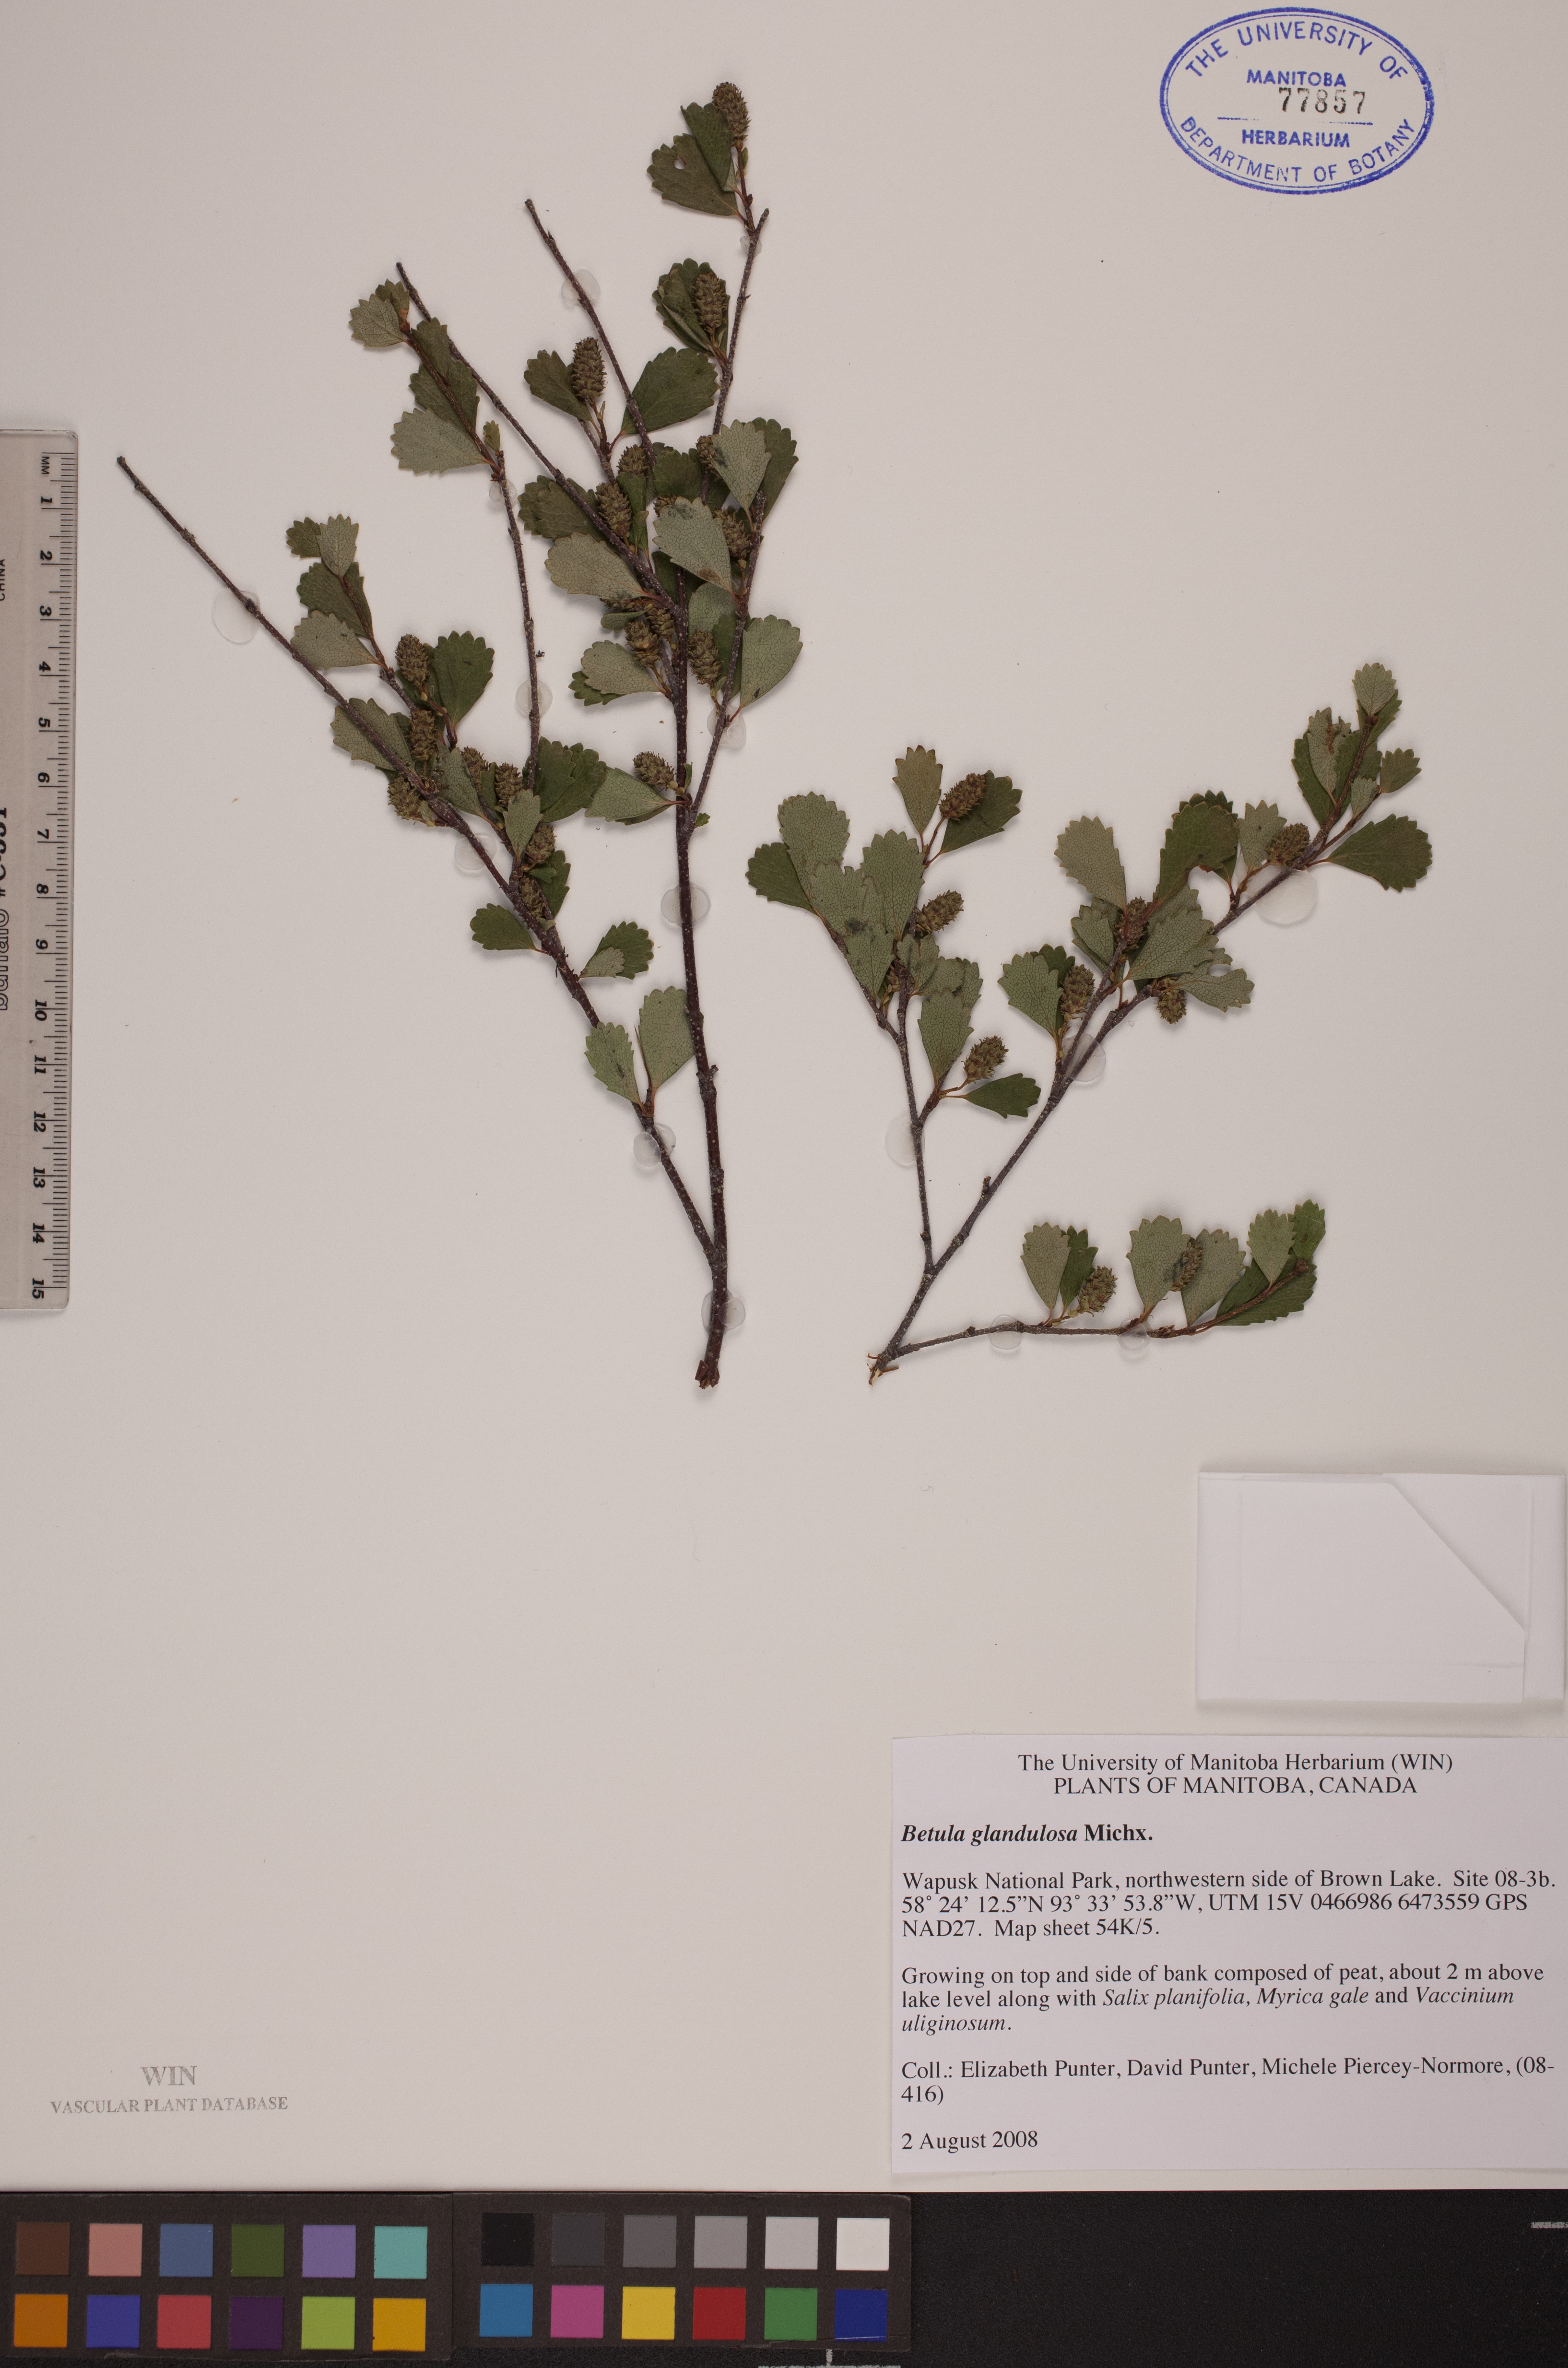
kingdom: Plantae
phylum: Tracheophyta
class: Magnoliopsida
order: Fagales
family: Betulaceae
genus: Betula
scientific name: Betula glandulosa
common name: Dwarf birch
